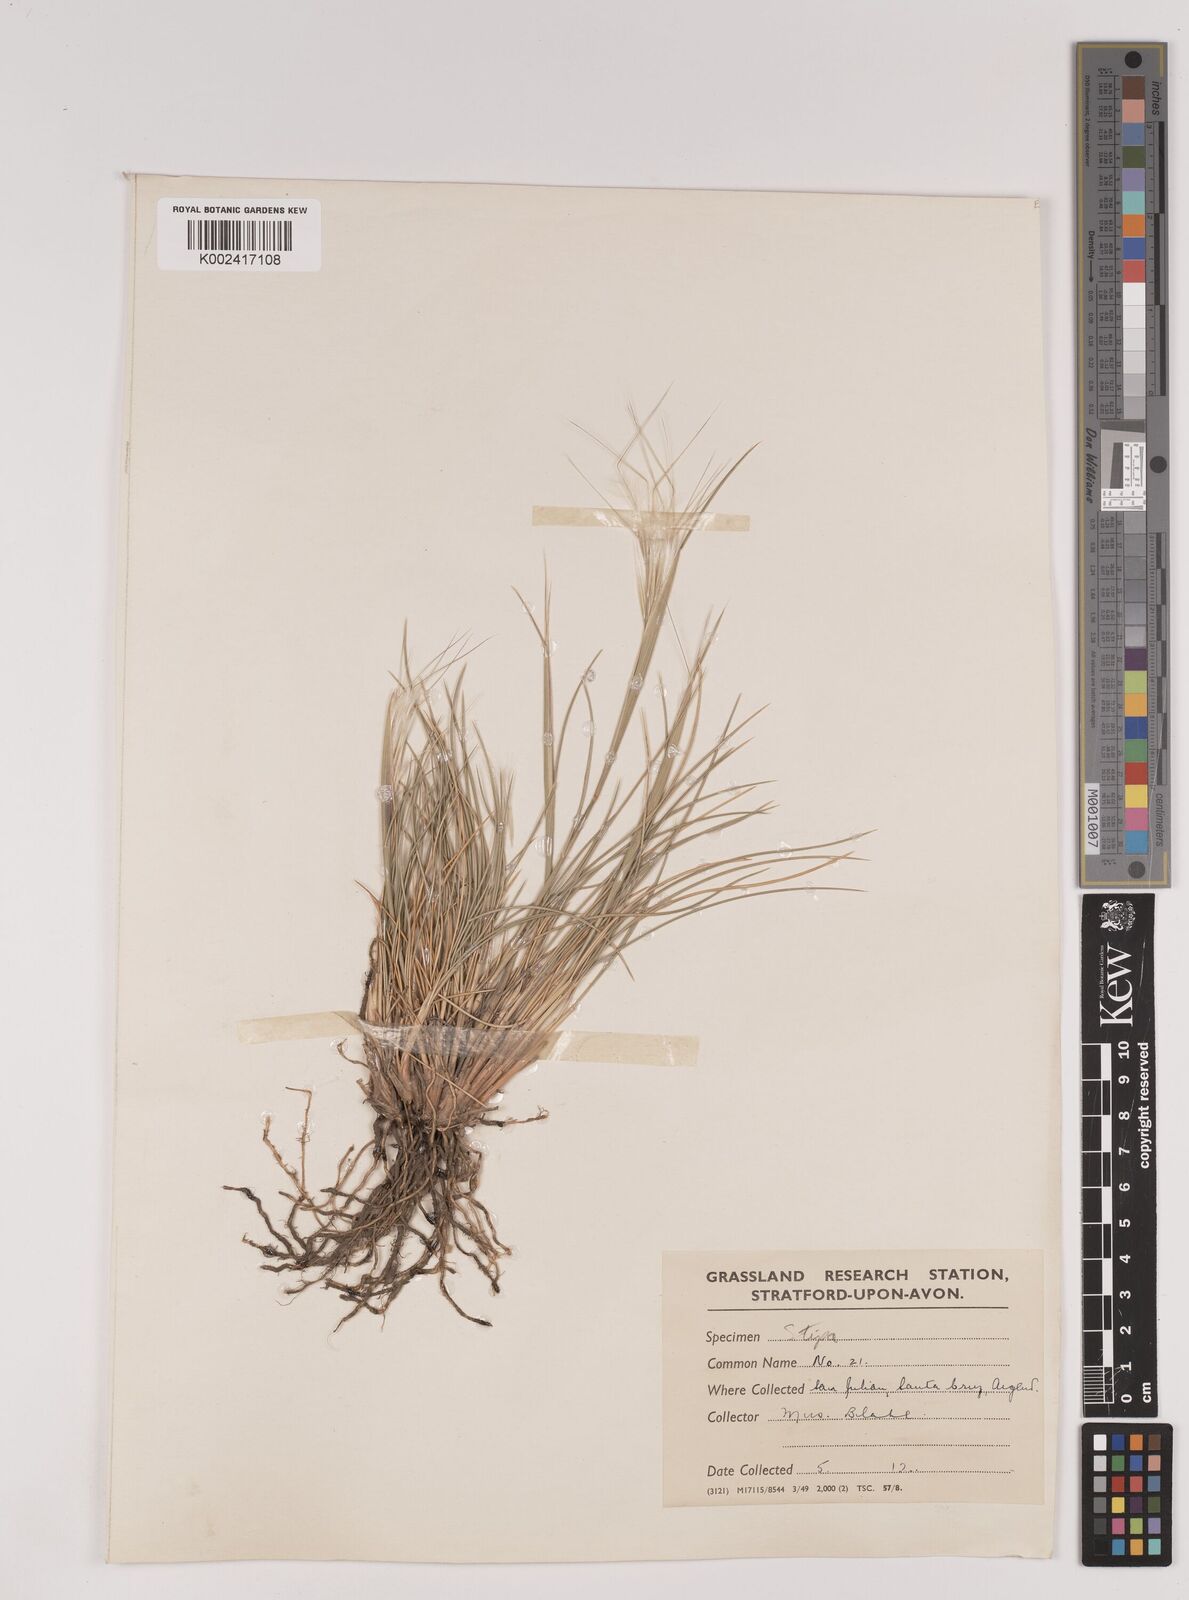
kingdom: Plantae
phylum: Tracheophyta
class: Liliopsida
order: Poales
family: Poaceae
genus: Stipa
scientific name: Stipa
